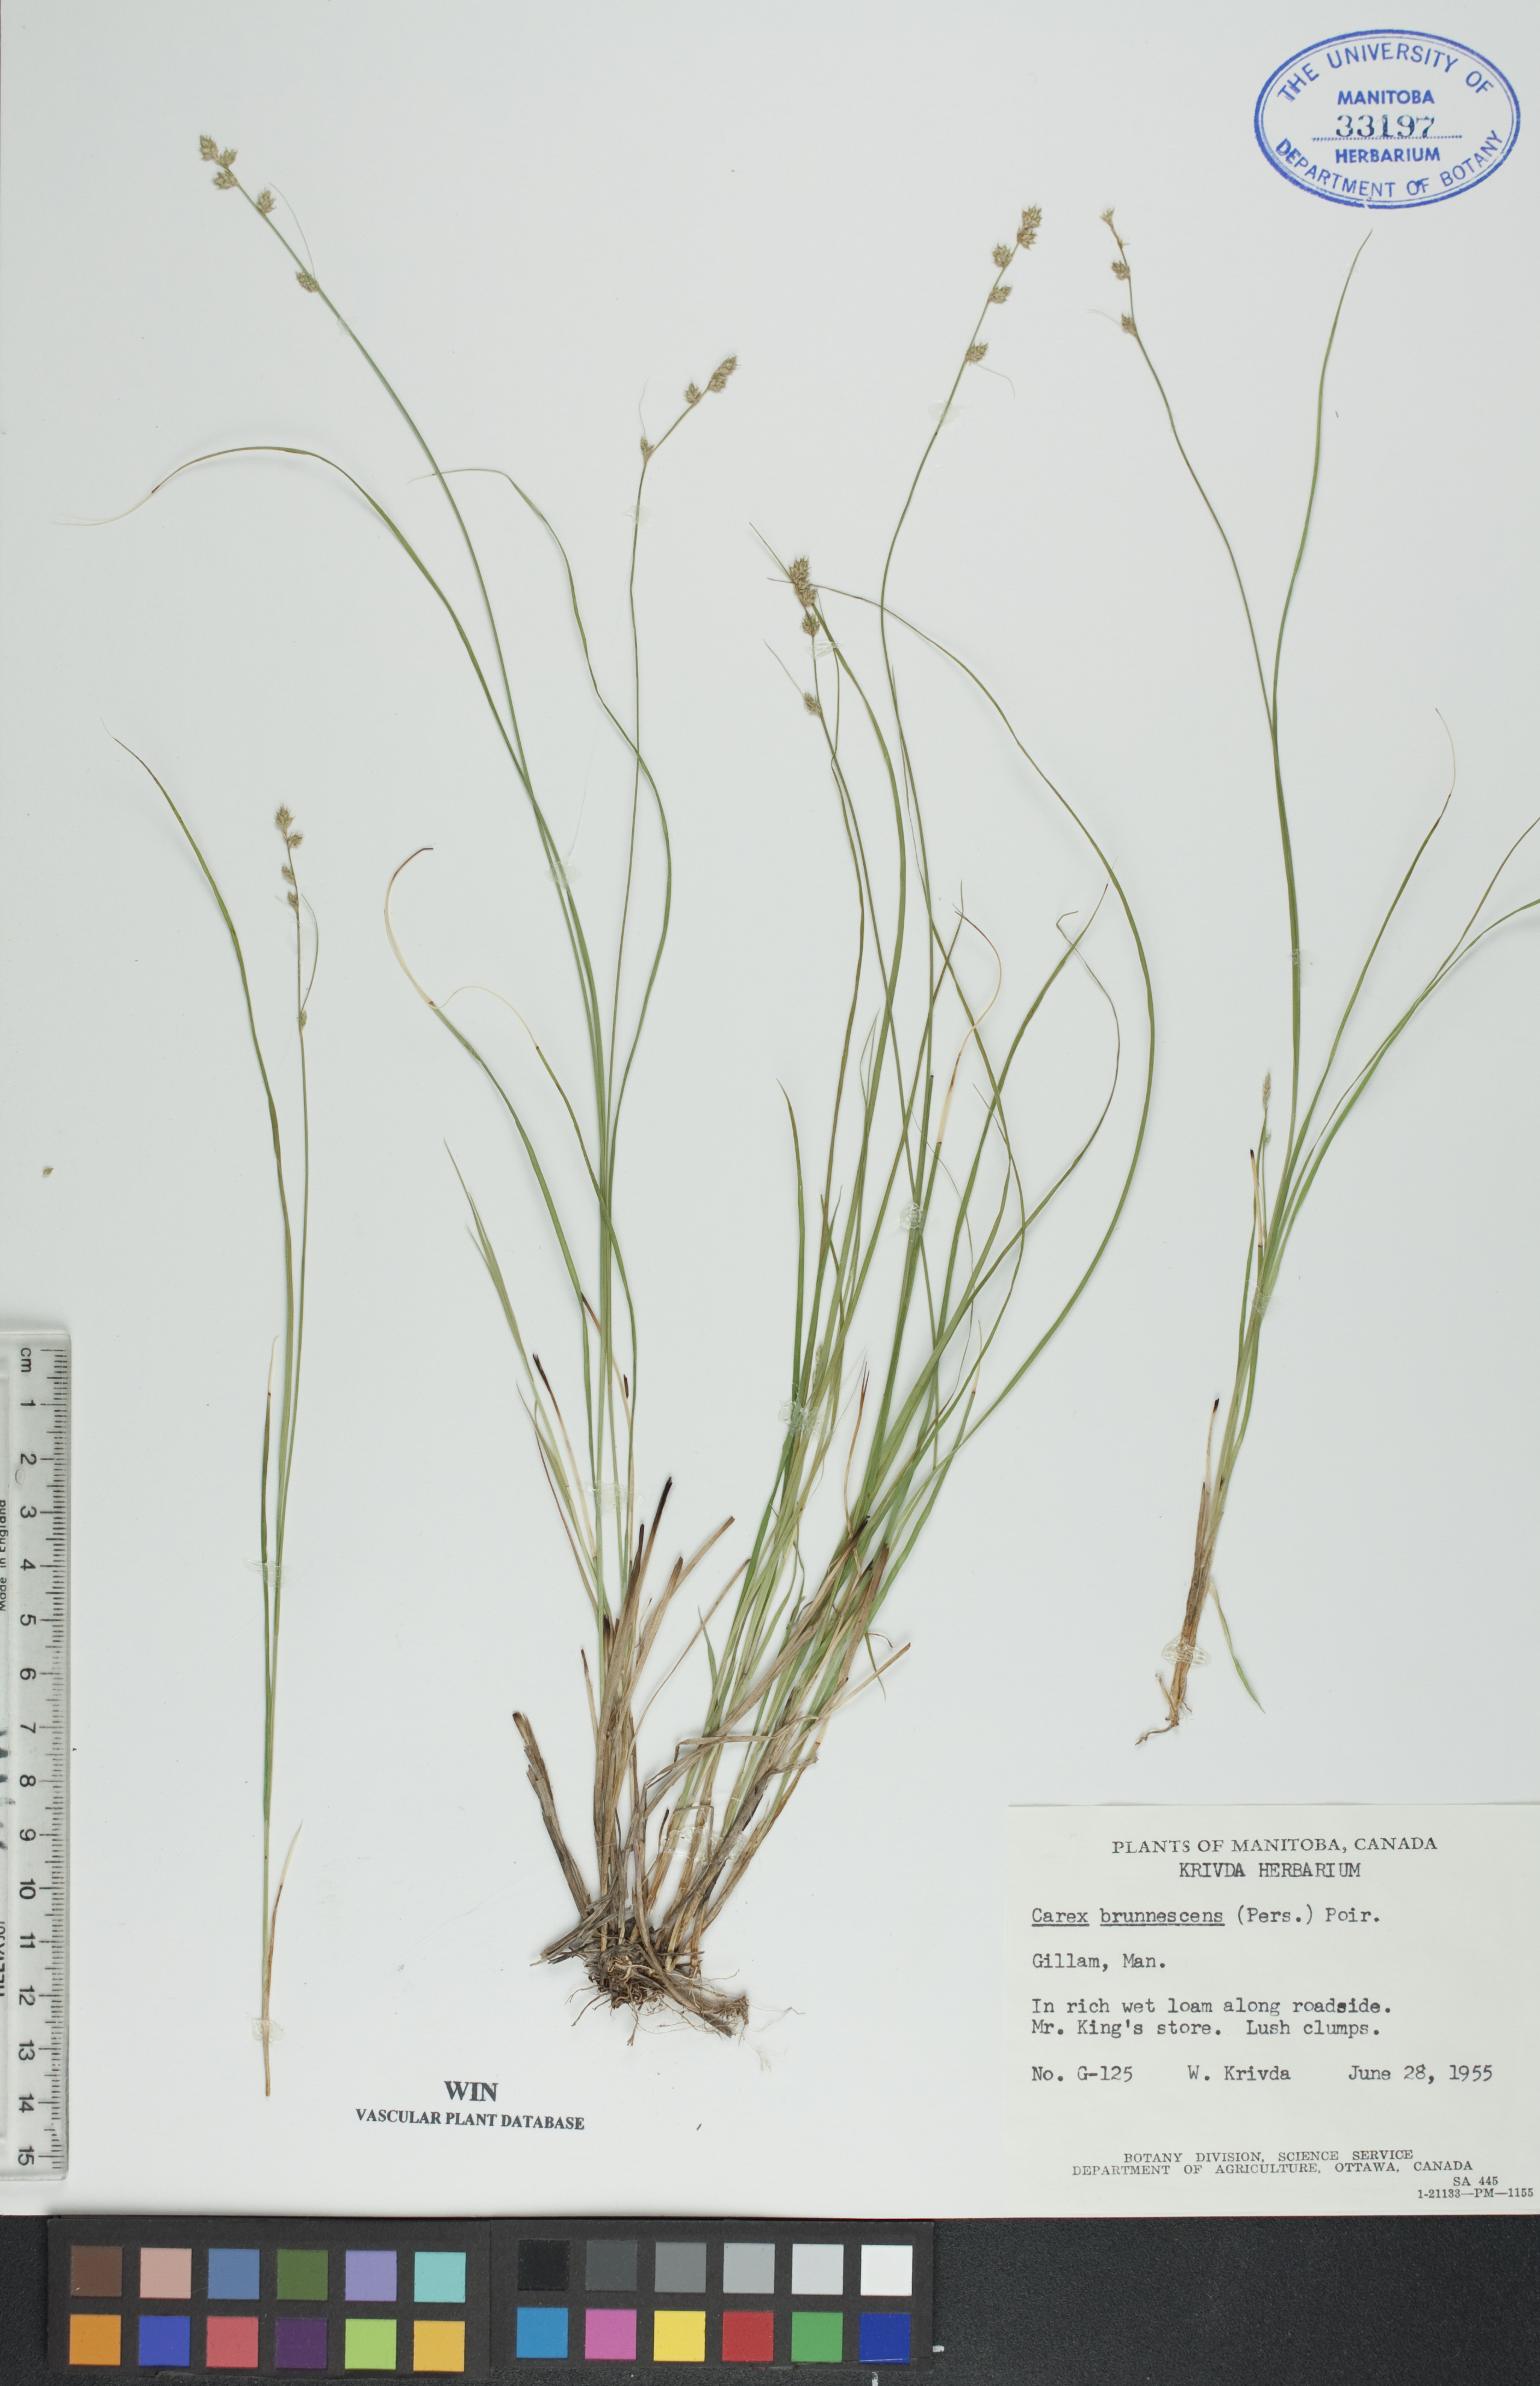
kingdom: Plantae
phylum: Tracheophyta
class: Liliopsida
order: Poales
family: Cyperaceae
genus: Carex
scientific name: Carex brunnescens
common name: Brown sedge
